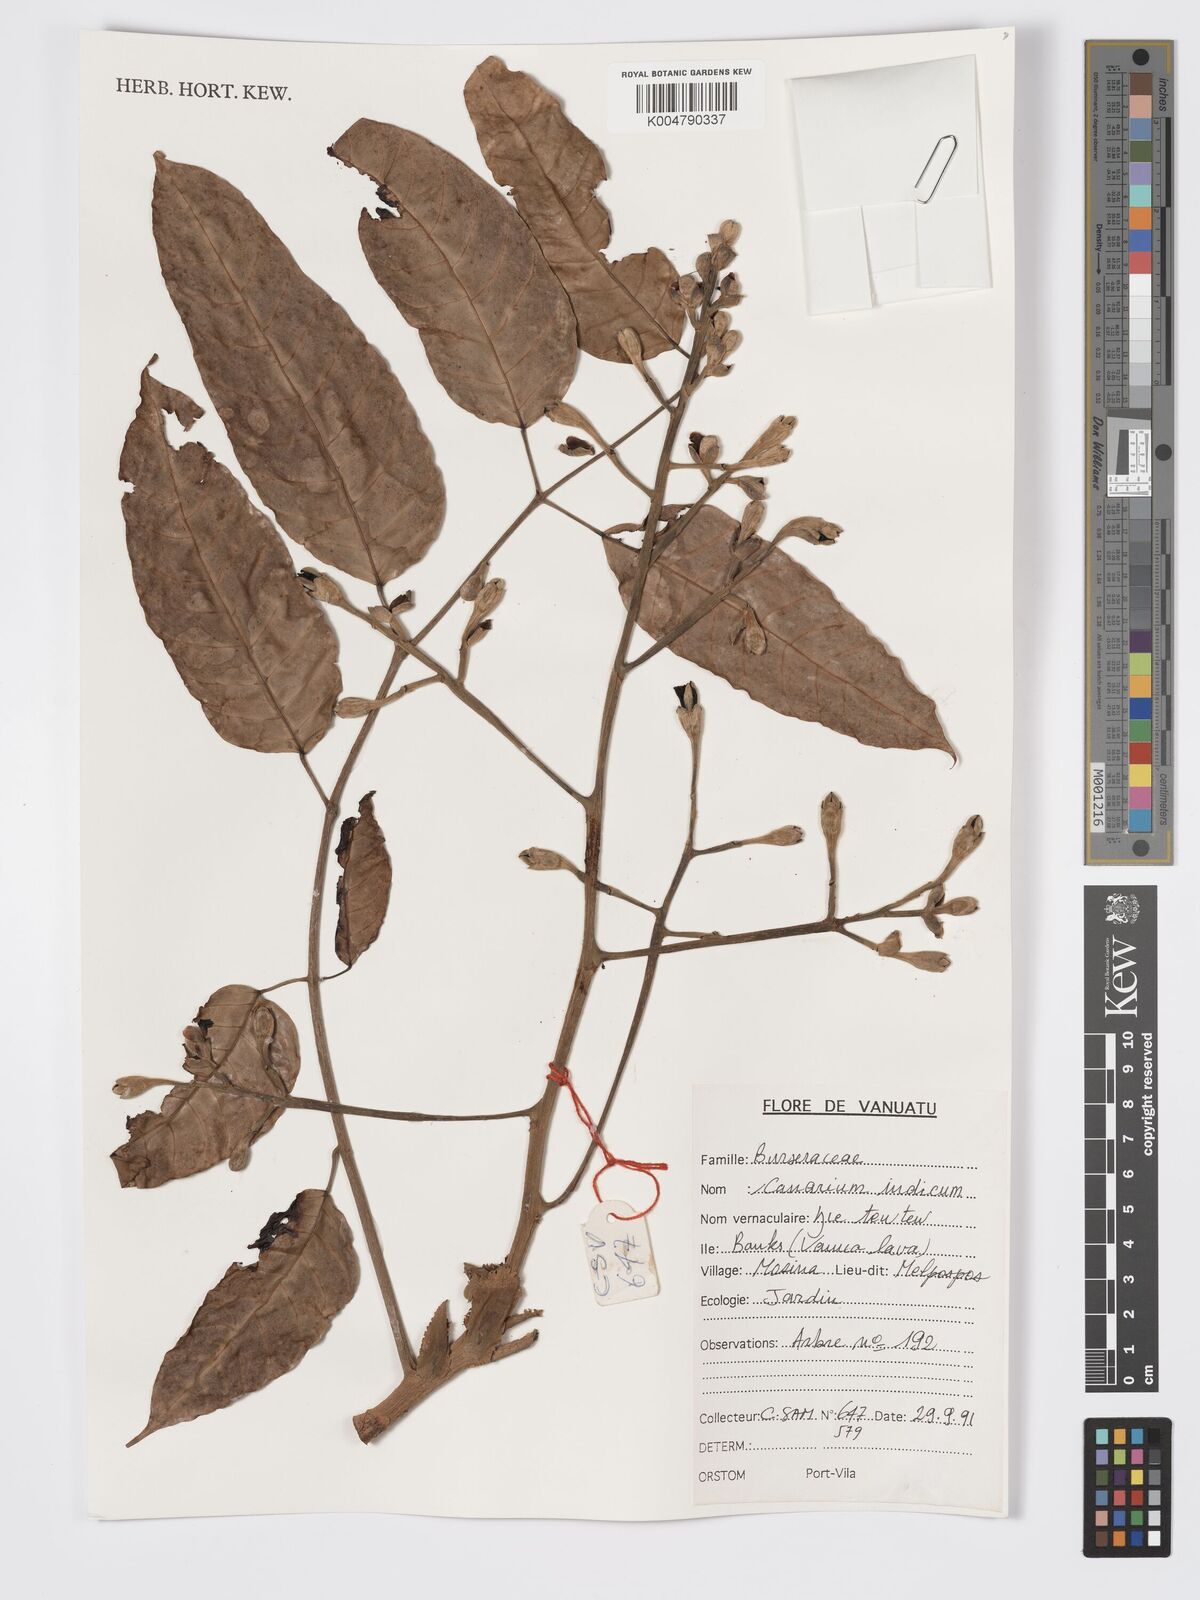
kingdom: Plantae
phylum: Tracheophyta
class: Magnoliopsida
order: Sapindales
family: Burseraceae
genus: Canarium
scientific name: Canarium indicum
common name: Canarium-nut
